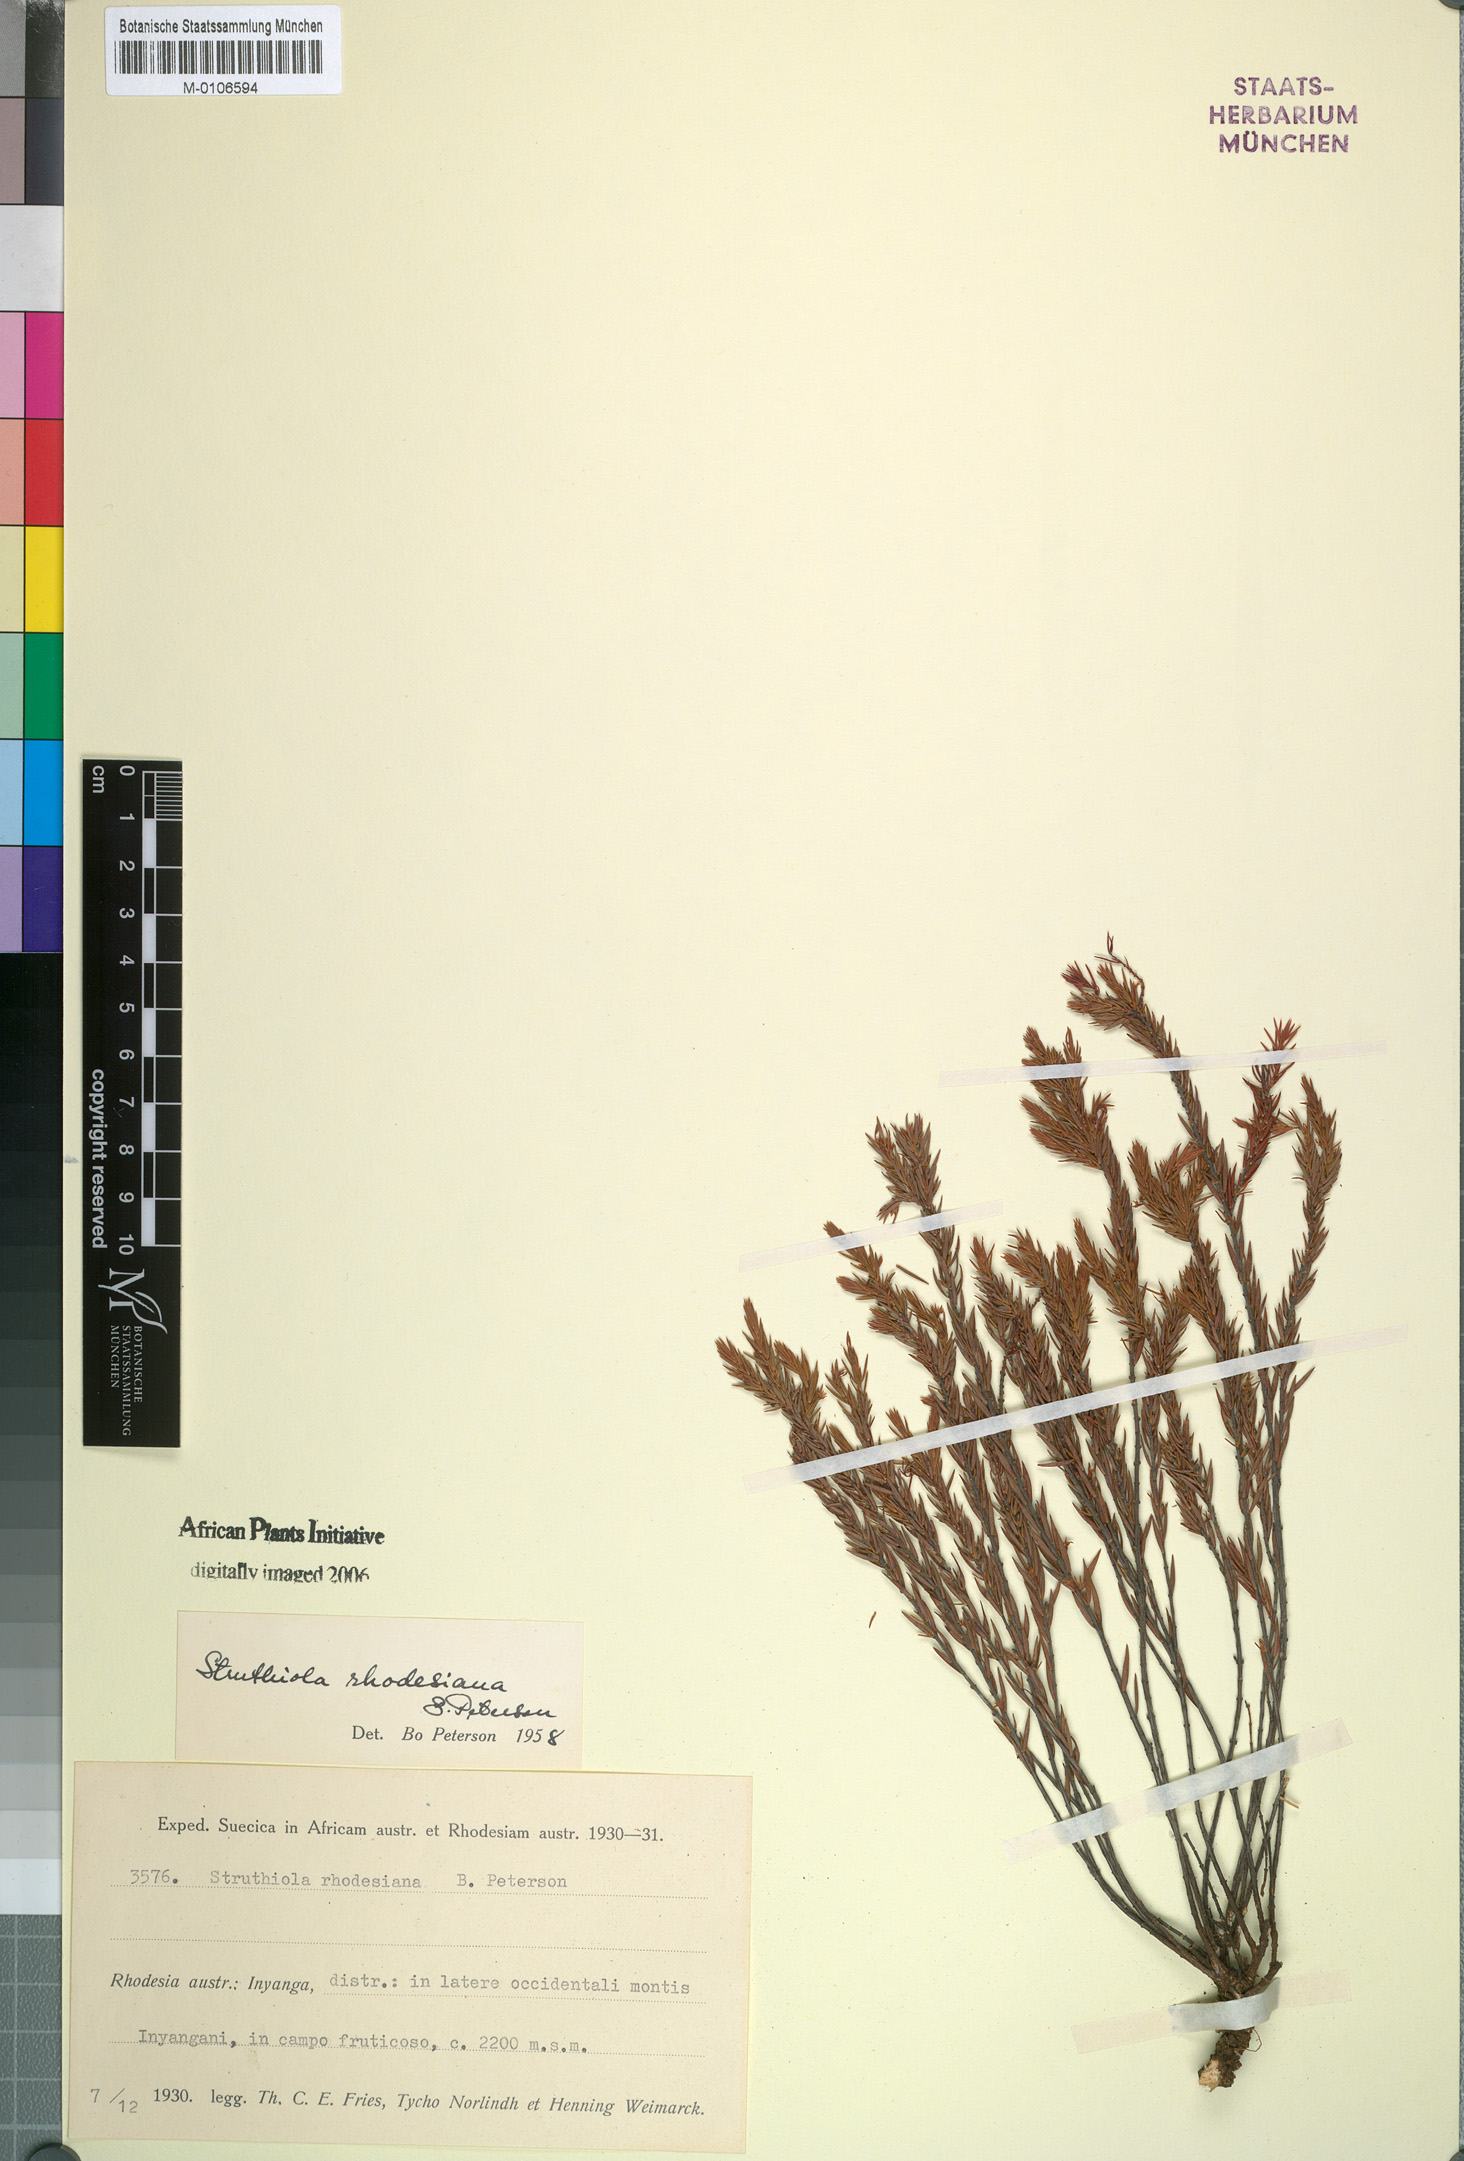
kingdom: Plantae
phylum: Tracheophyta
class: Magnoliopsida
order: Malvales
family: Thymelaeaceae
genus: Struthiola
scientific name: Struthiola rhodesiana
